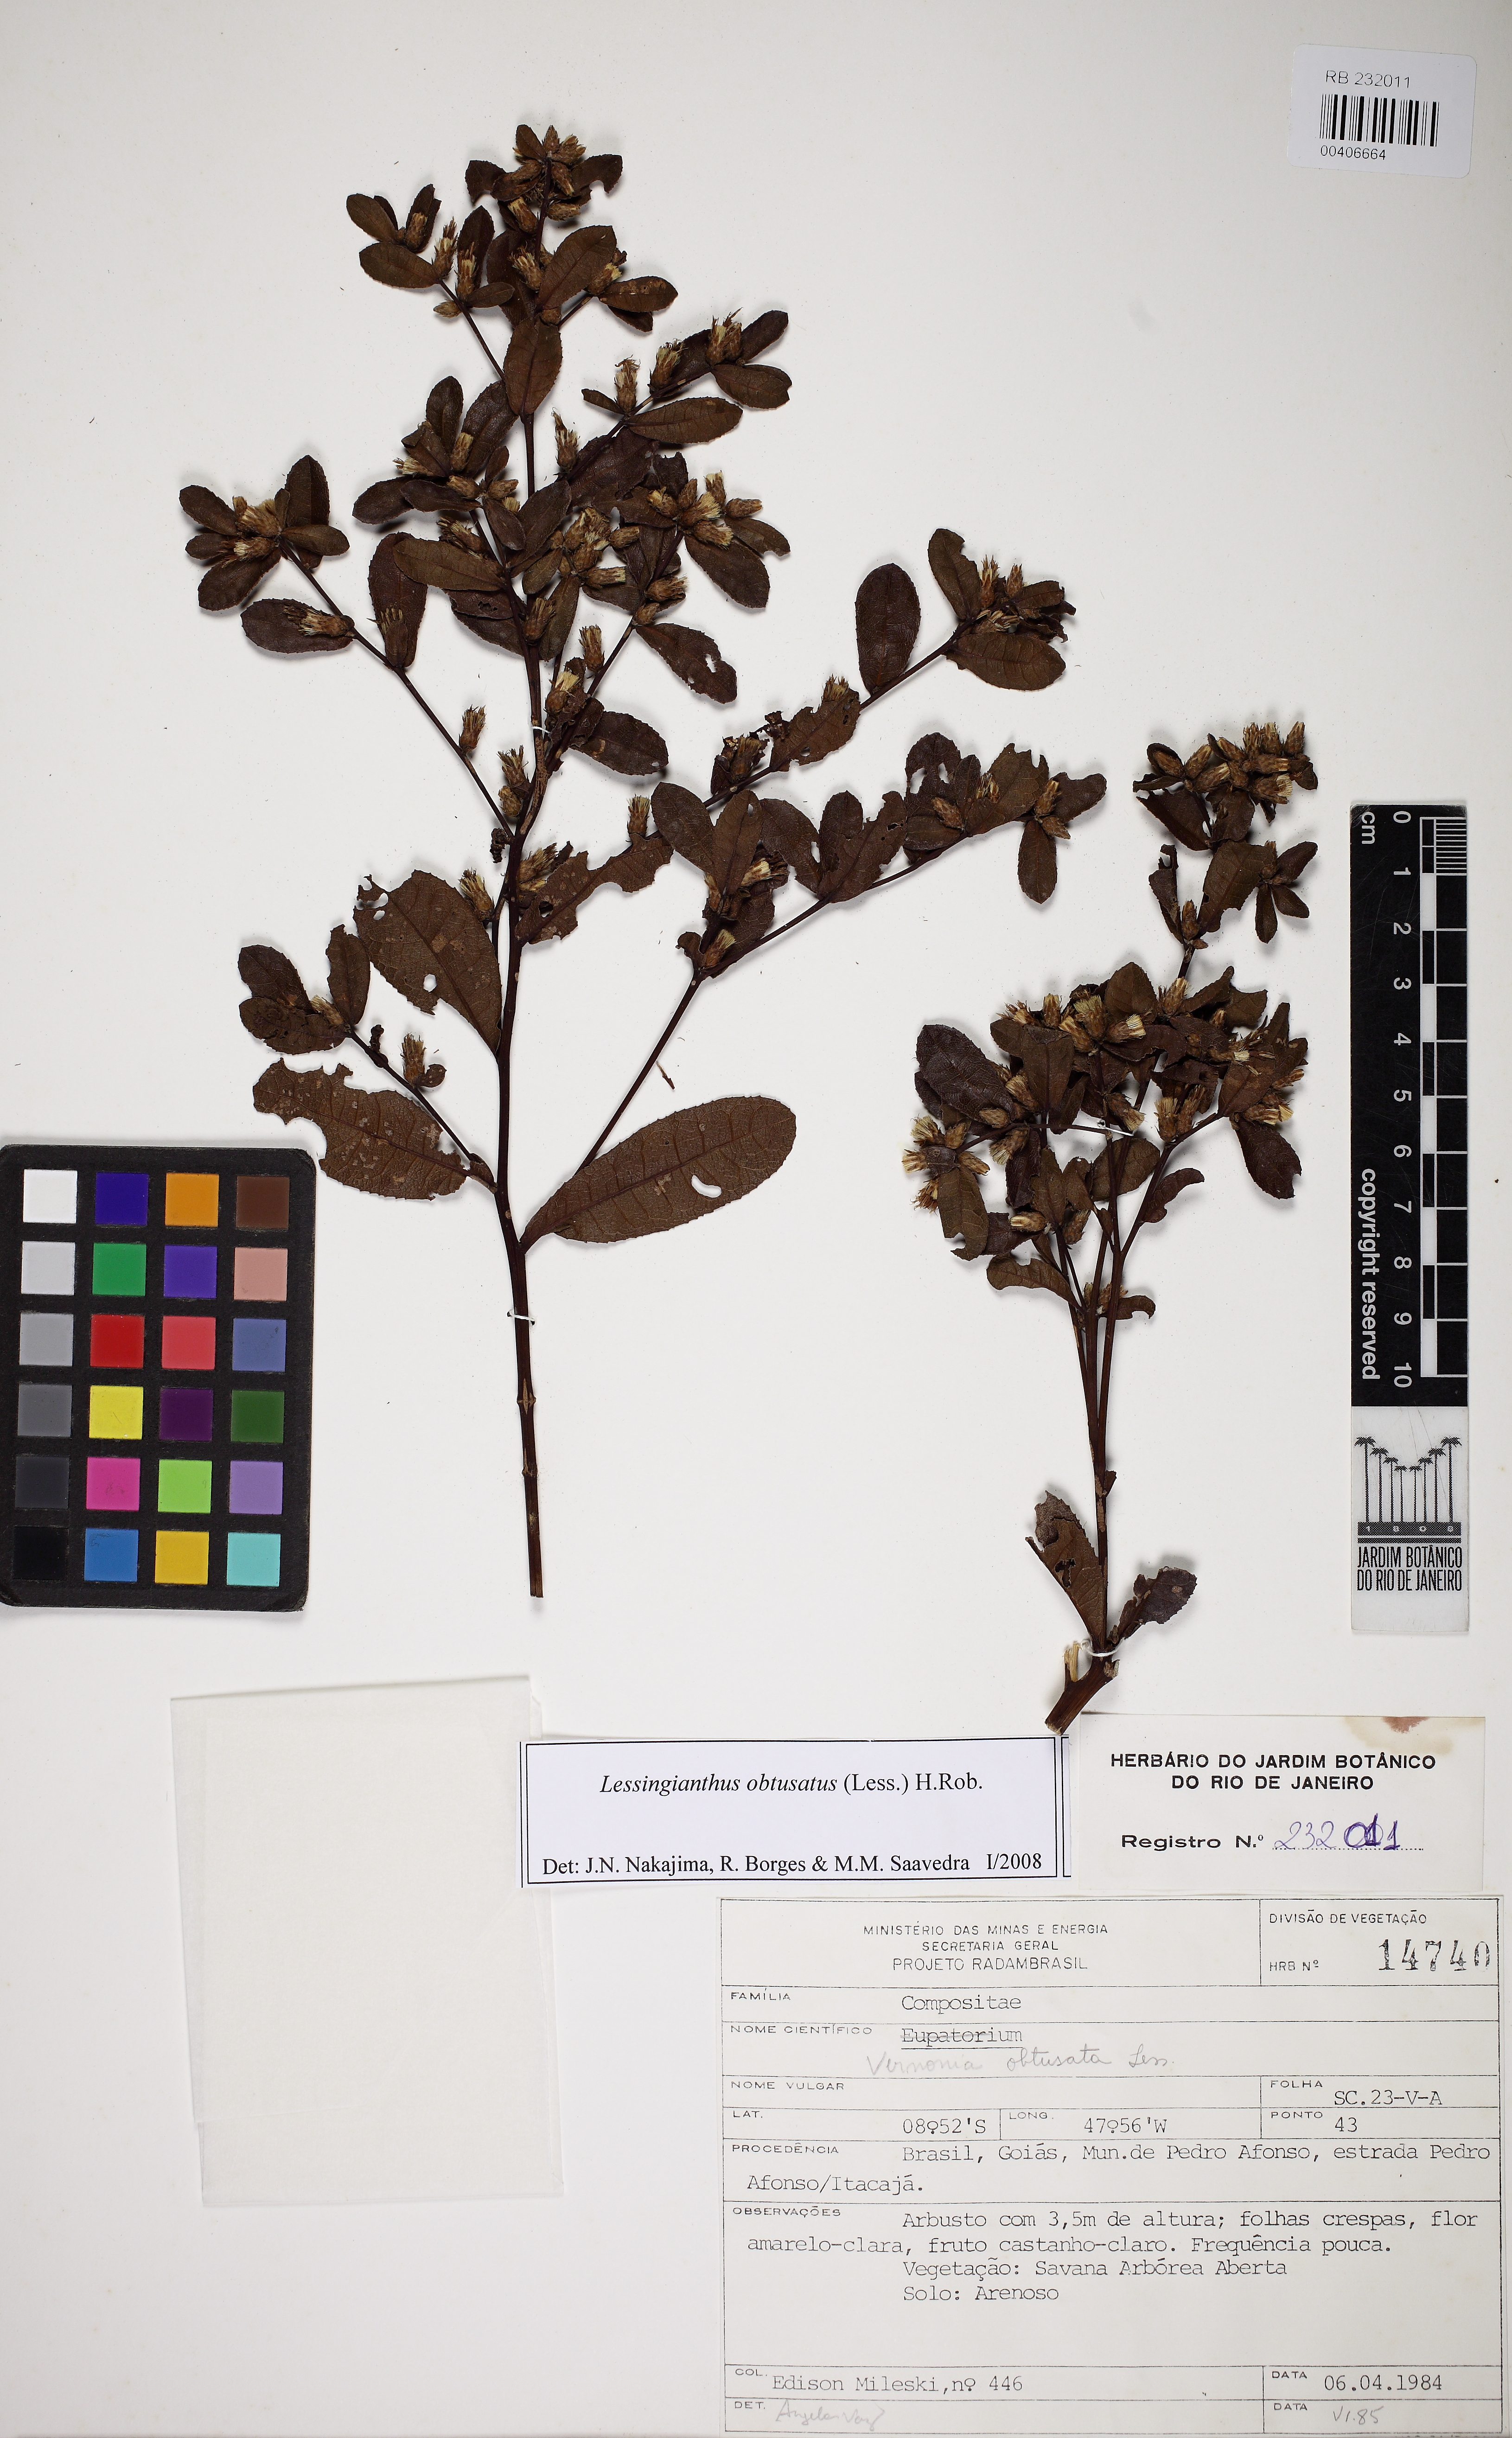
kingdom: Plantae
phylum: Tracheophyta
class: Magnoliopsida
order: Asterales
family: Asteraceae
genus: Lessingianthus
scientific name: Lessingianthus obtusatus
